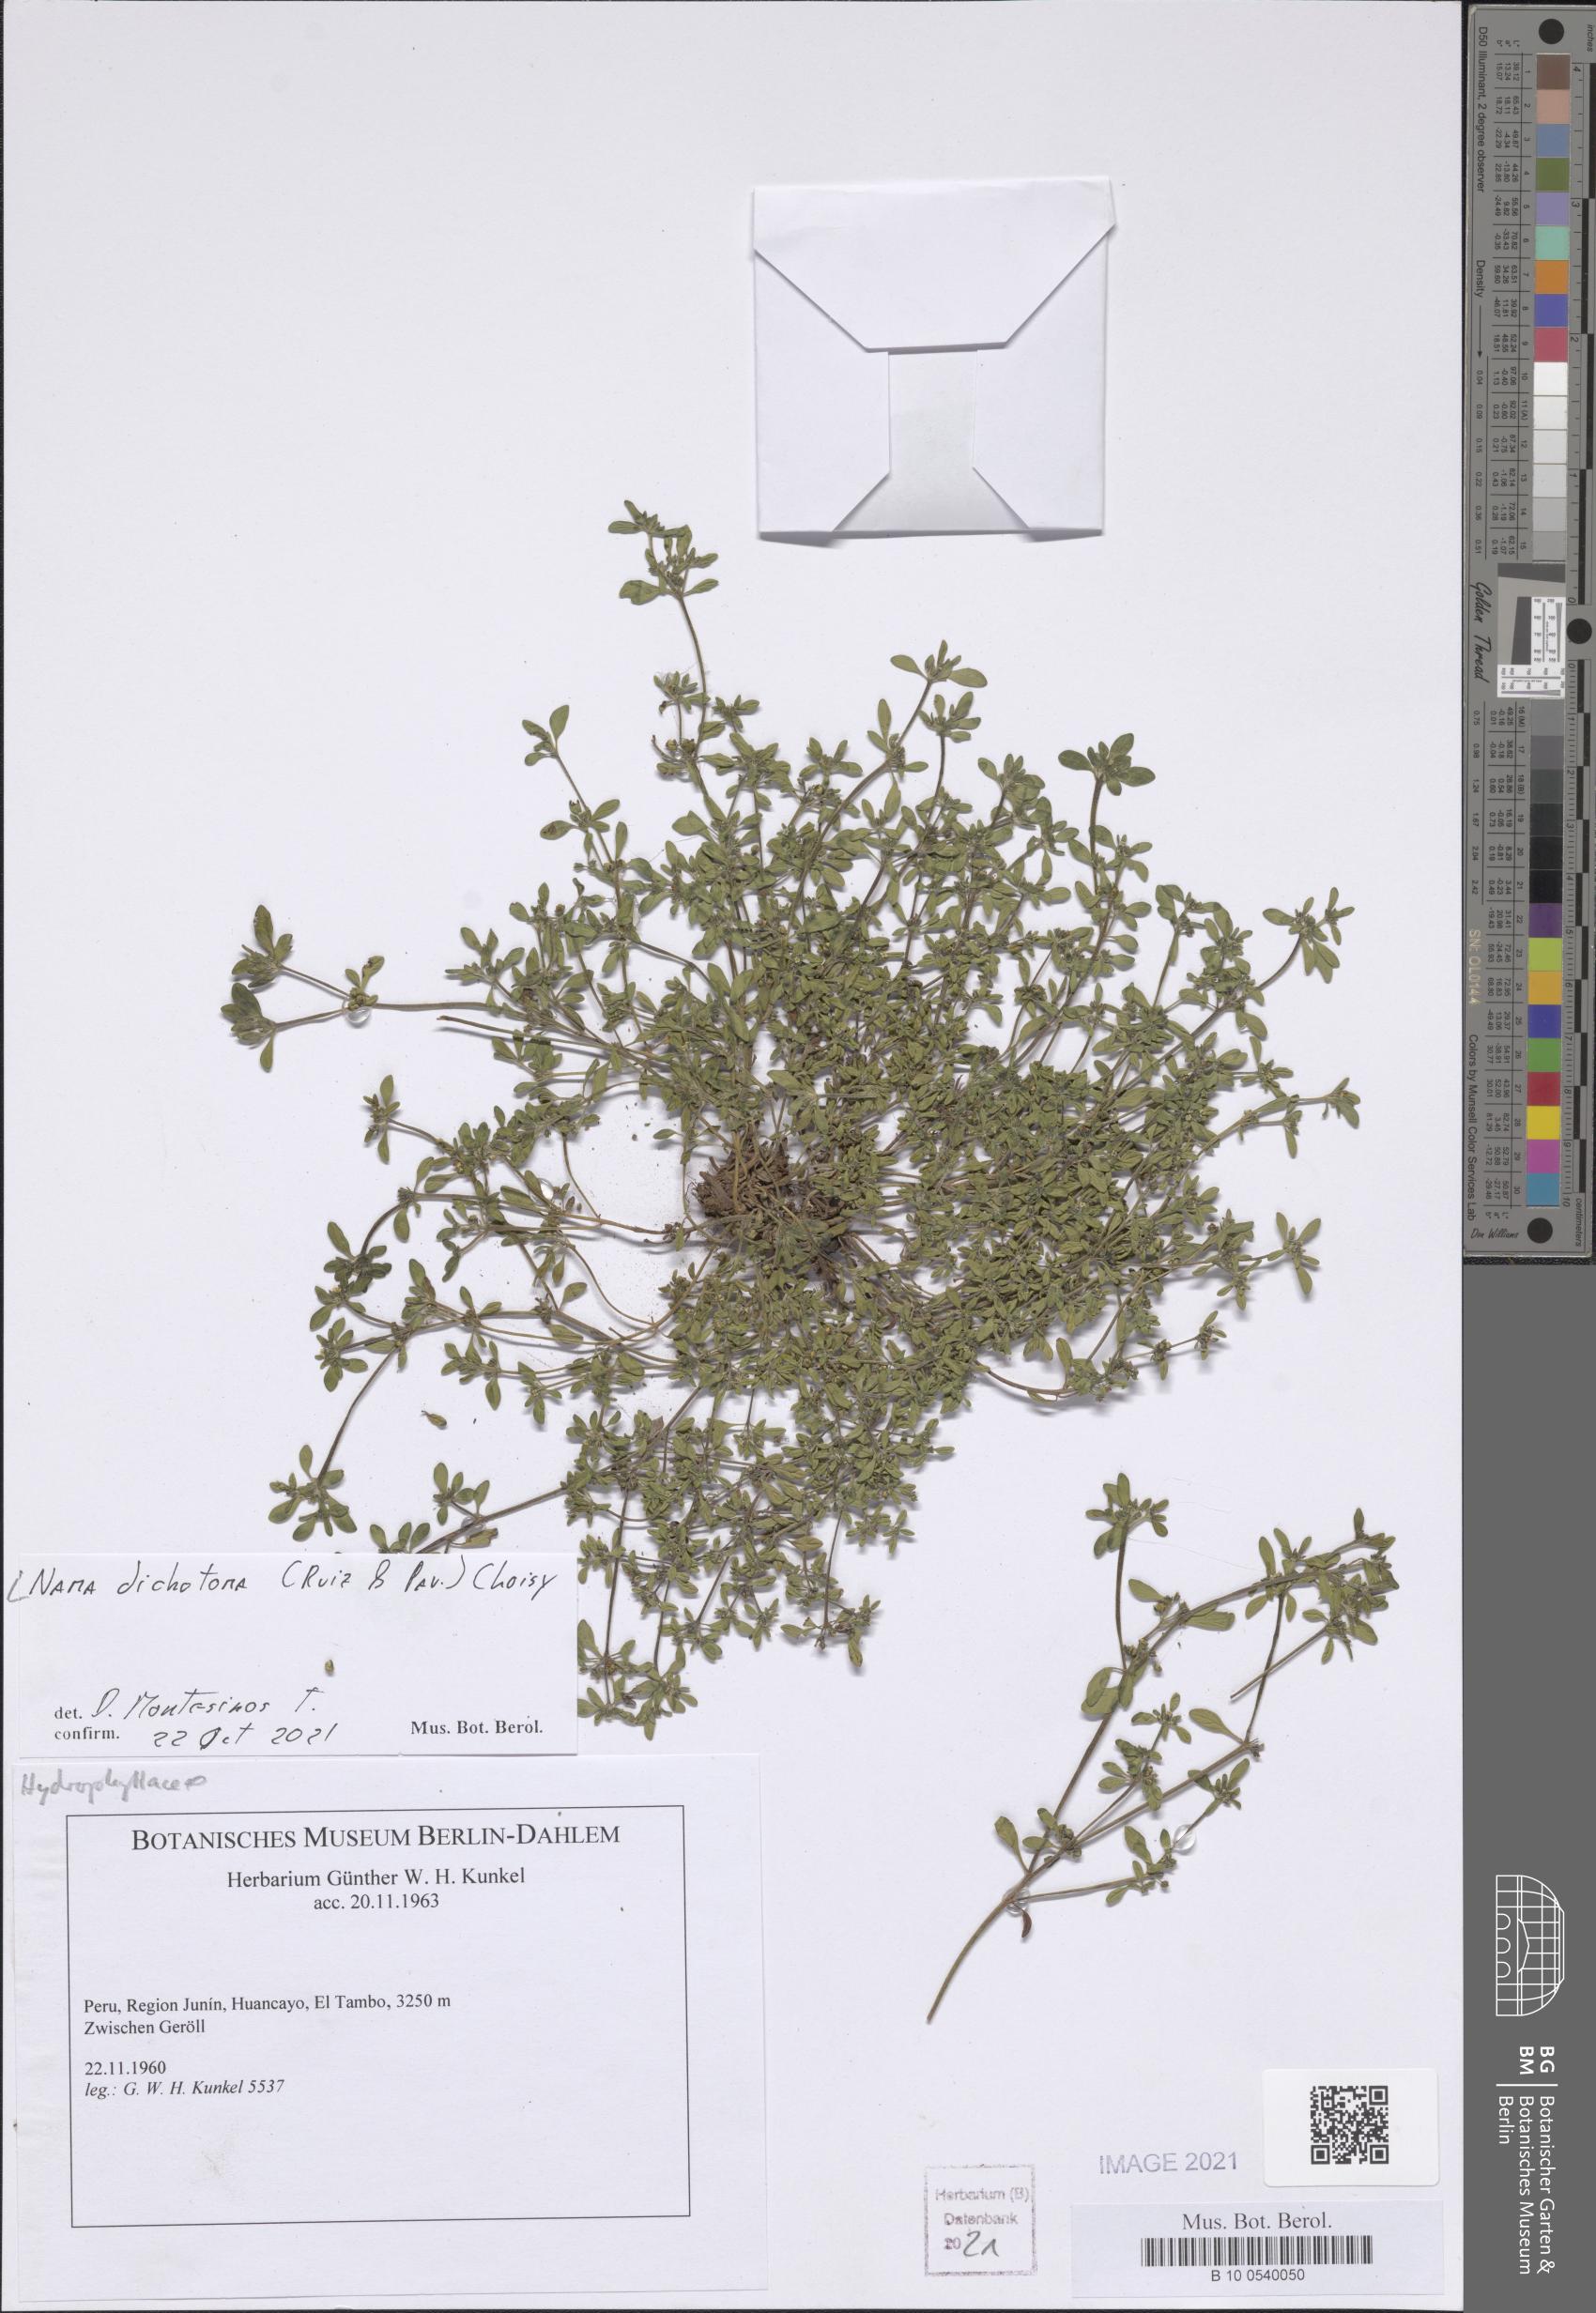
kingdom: Plantae
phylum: Tracheophyta
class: Magnoliopsida
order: Boraginales
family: Namaceae
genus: Nama
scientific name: Nama dichotoma
